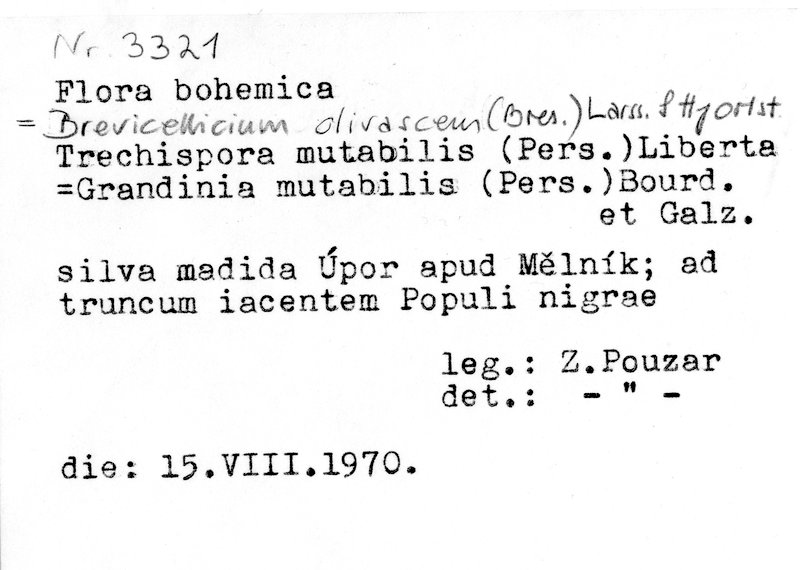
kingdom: Fungi
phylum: Basidiomycota
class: Agaricomycetes
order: Trechisporales
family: Hydnodontaceae
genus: Brevicellicium
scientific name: Brevicellicium olivascens
